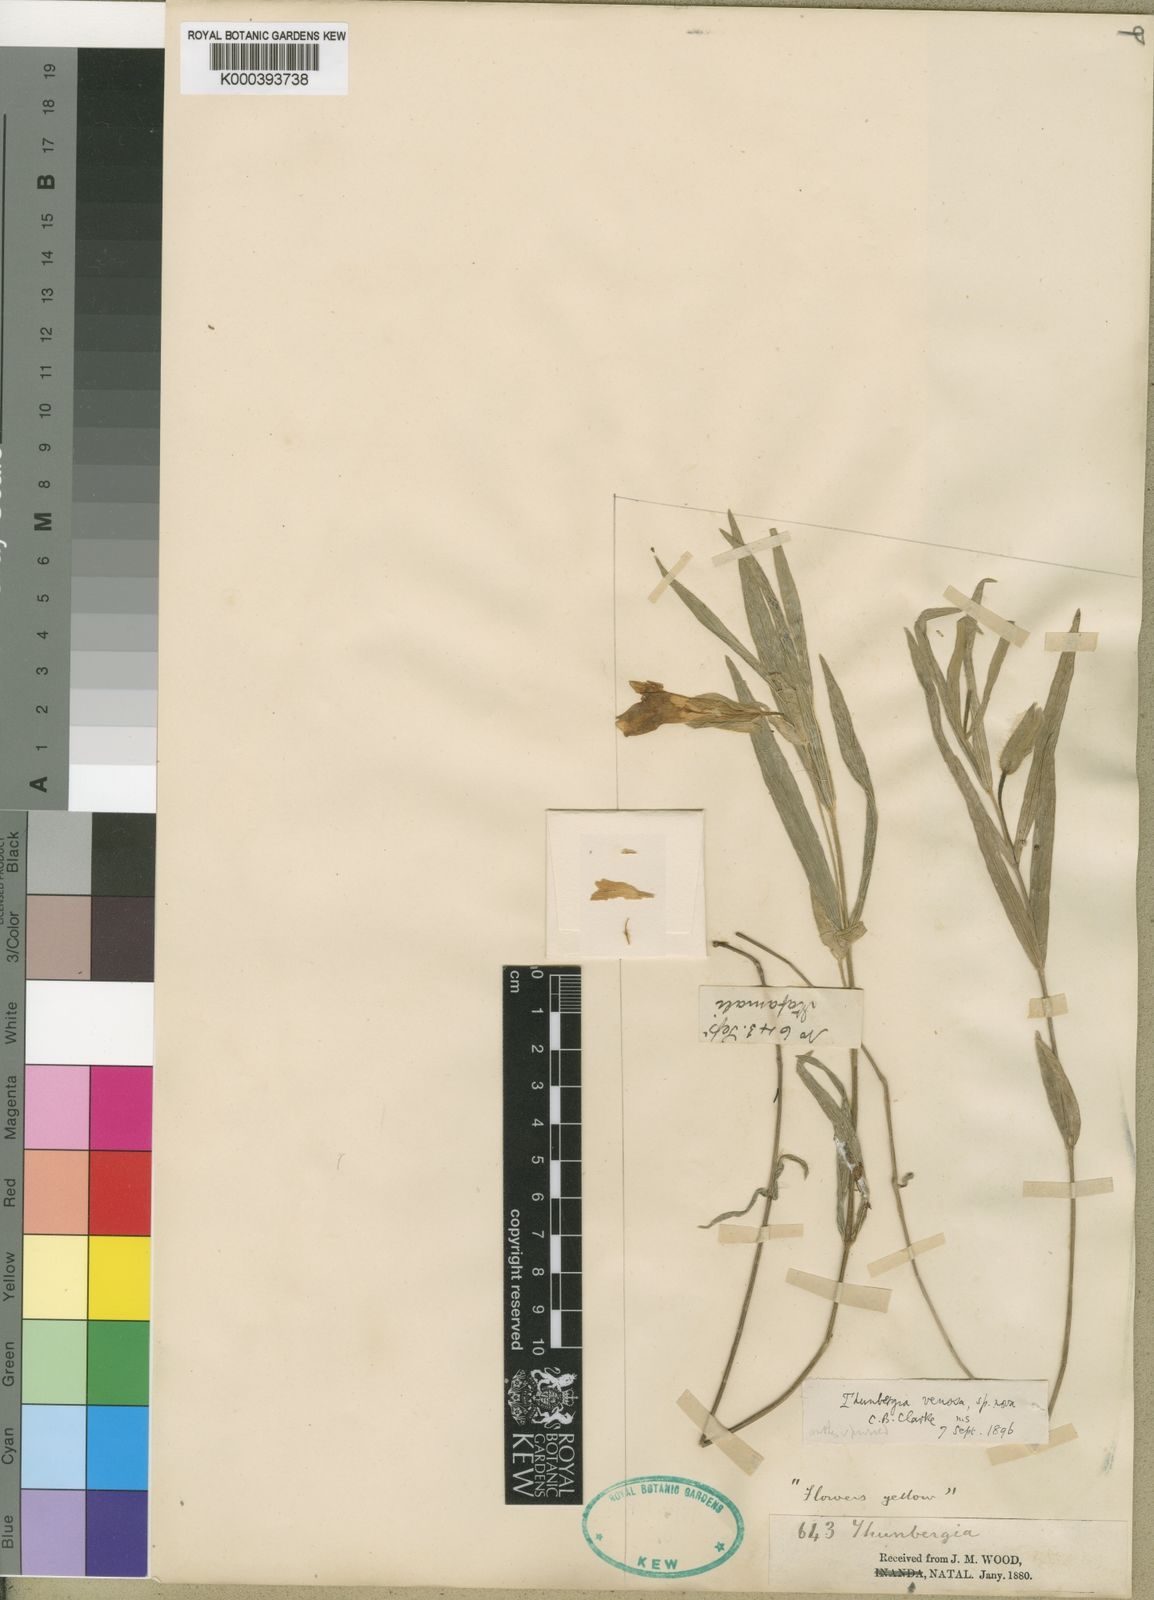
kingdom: Plantae
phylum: Tracheophyta
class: Magnoliopsida
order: Lamiales
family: Acanthaceae
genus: Thunbergia
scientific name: Thunbergia venosa
